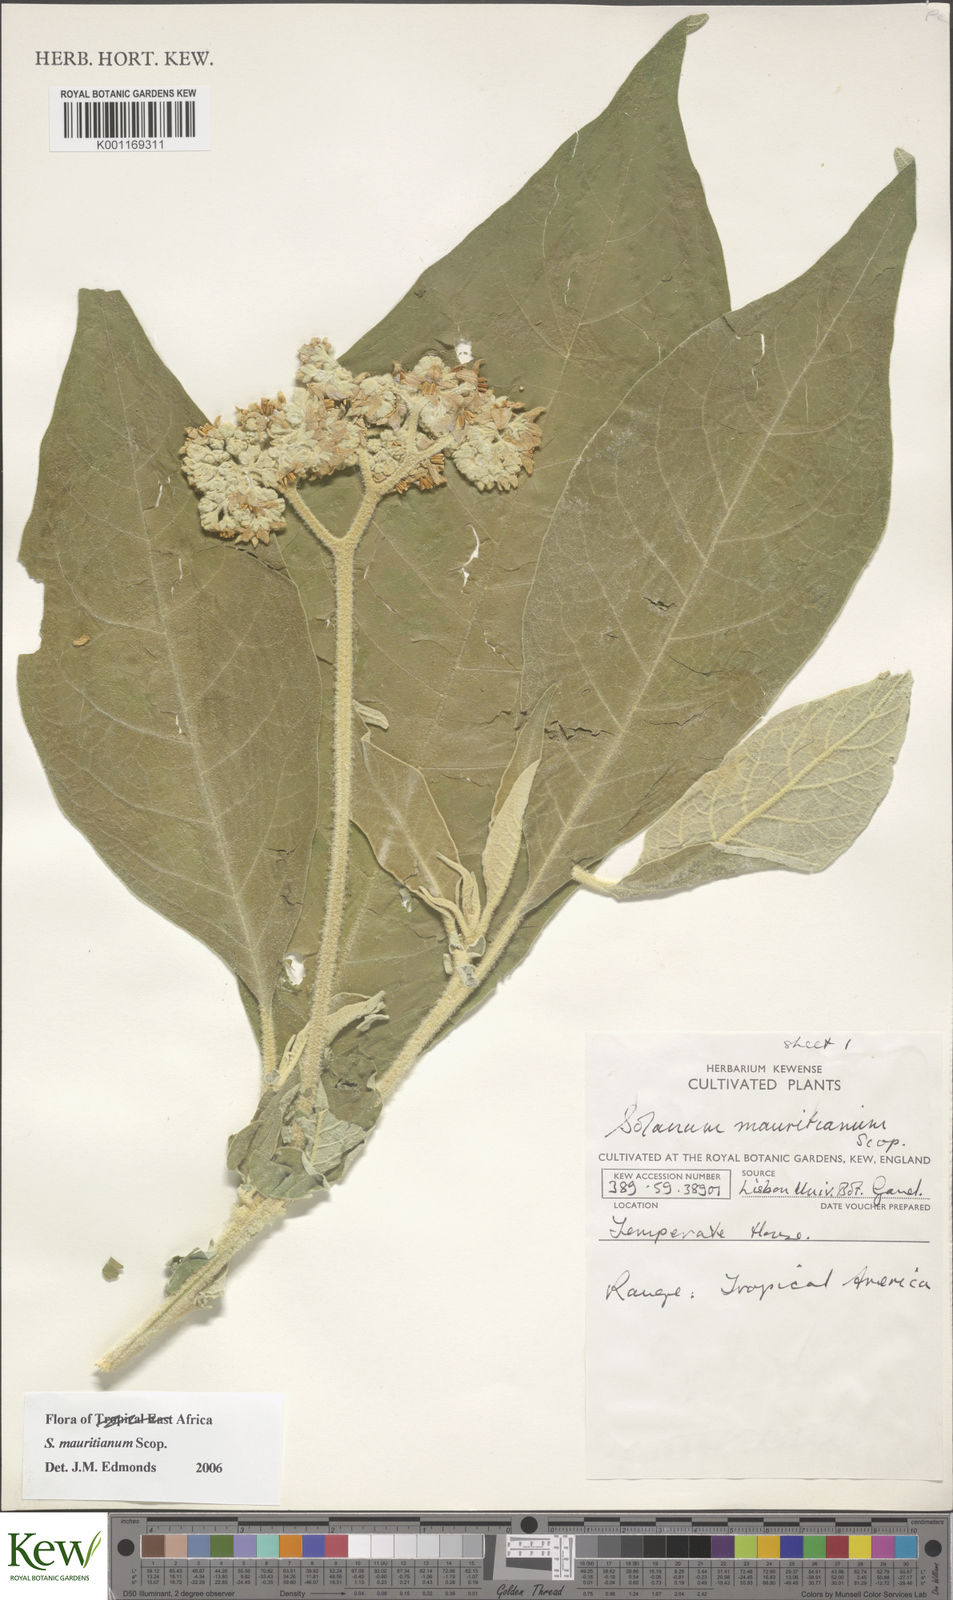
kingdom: Plantae
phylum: Tracheophyta
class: Magnoliopsida
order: Solanales
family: Solanaceae
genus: Solanum
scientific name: Solanum mauritianum
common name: Earleaf nightshade
